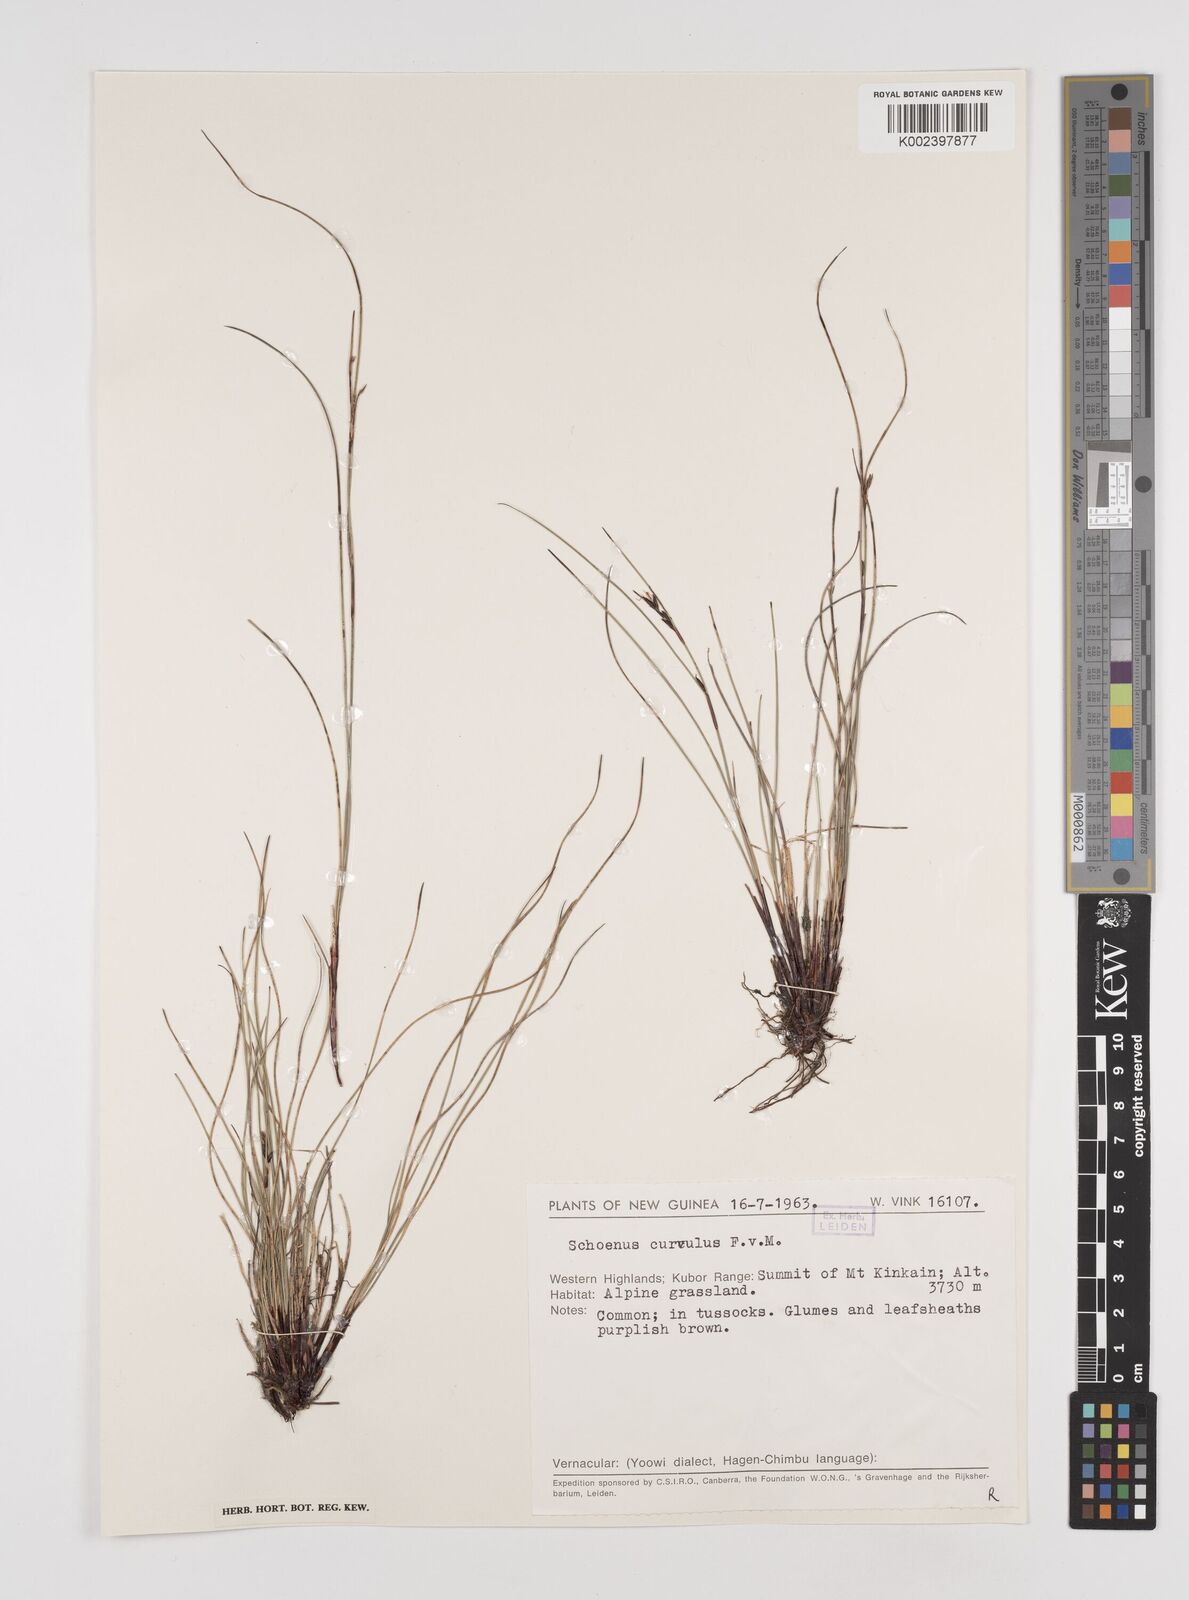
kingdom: Plantae
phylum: Tracheophyta
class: Liliopsida
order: Poales
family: Cyperaceae
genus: Schoenus
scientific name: Schoenus curvulus
